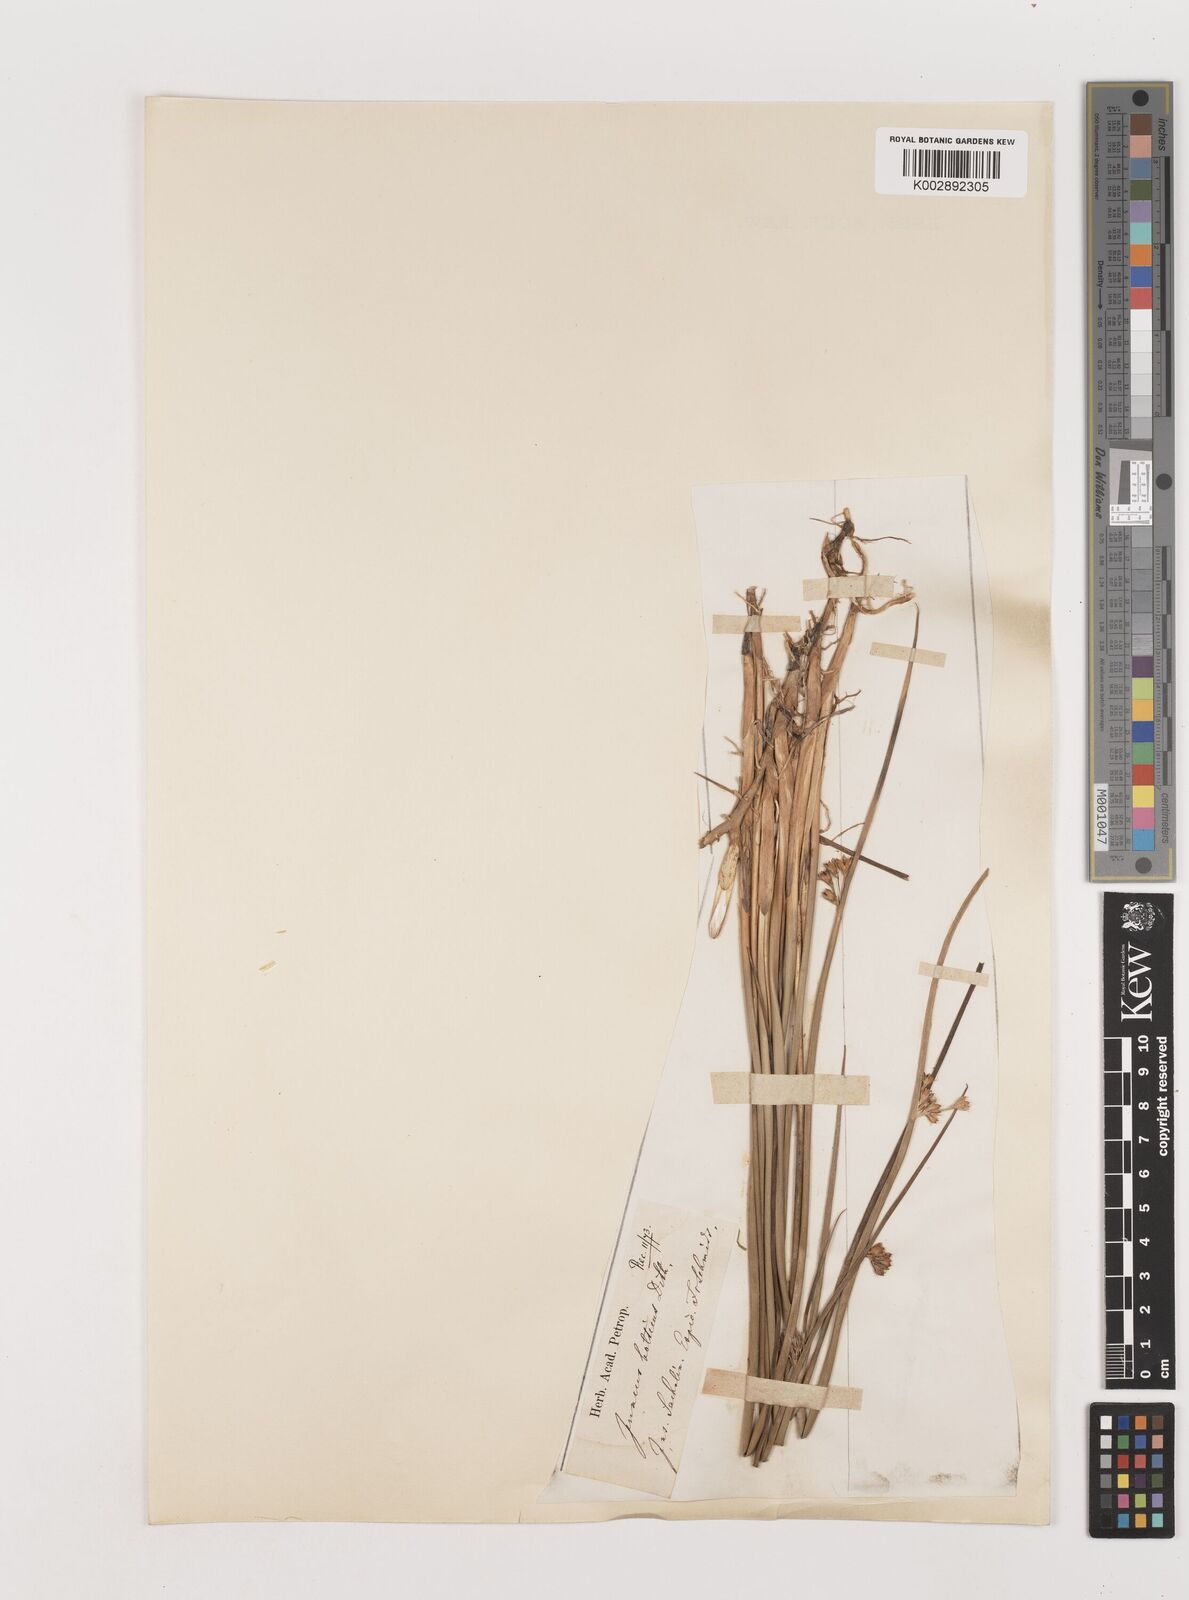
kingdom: Plantae
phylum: Tracheophyta
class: Liliopsida
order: Poales
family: Juncaceae
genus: Juncus
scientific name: Juncus balticus
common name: Baltic rush
